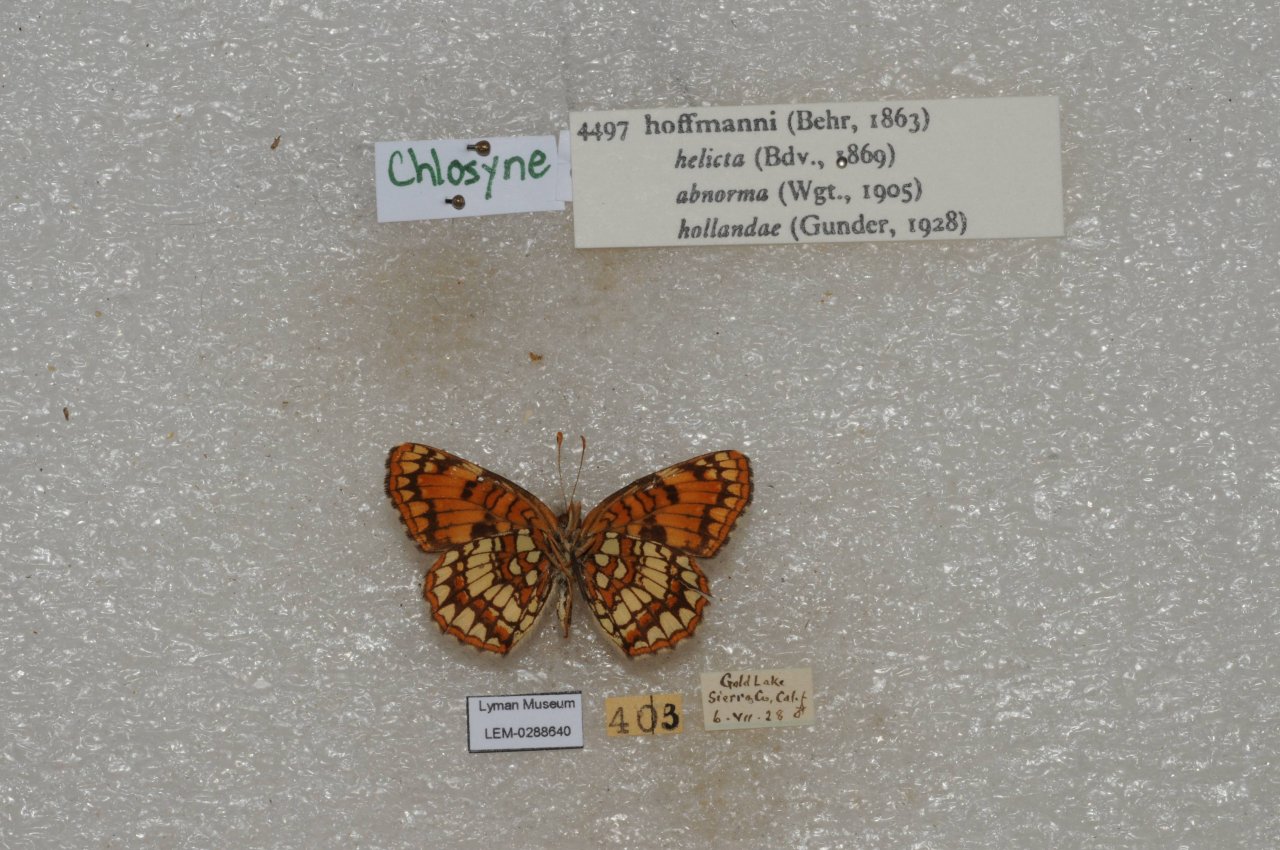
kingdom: Animalia
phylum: Arthropoda
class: Insecta
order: Lepidoptera
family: Nymphalidae
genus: Chlosyne
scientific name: Chlosyne hoffmanni
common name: Hoffmann's Checkerspot
